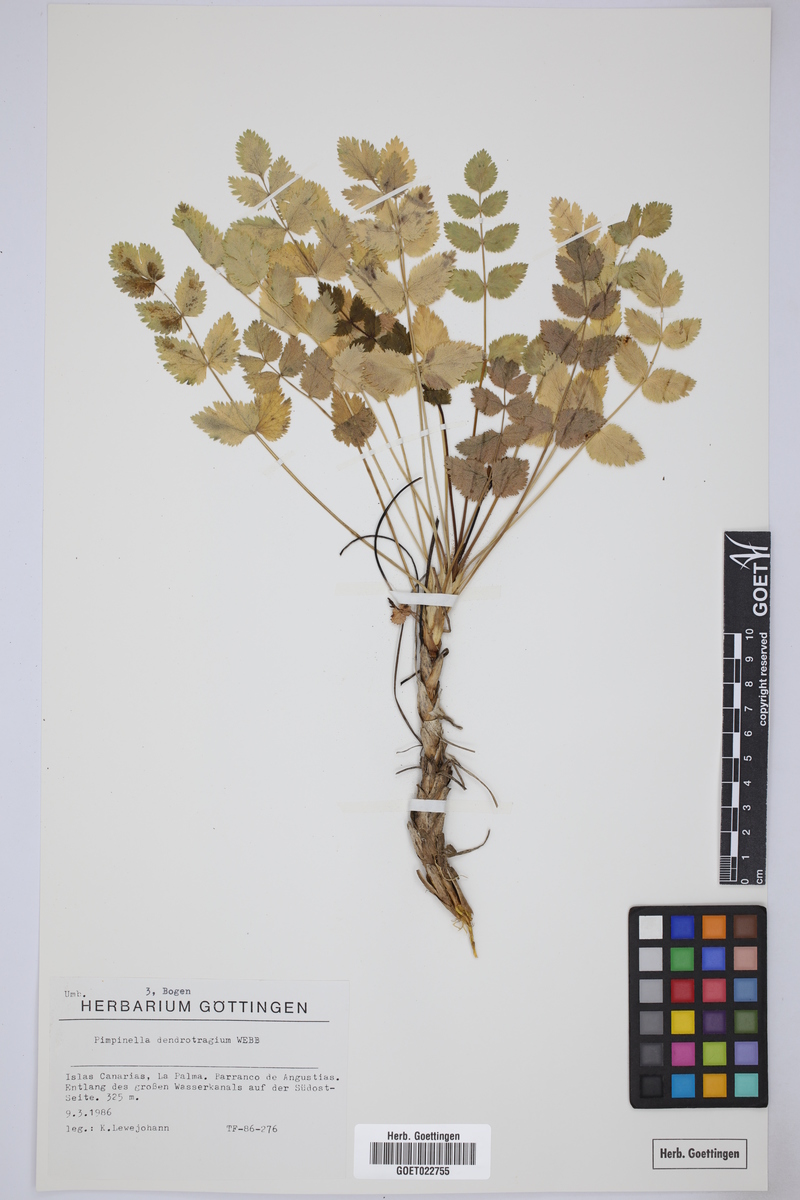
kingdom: Plantae
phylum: Tracheophyta
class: Magnoliopsida
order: Apiales
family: Apiaceae
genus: Pimpinella
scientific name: Pimpinella dendroselinum
